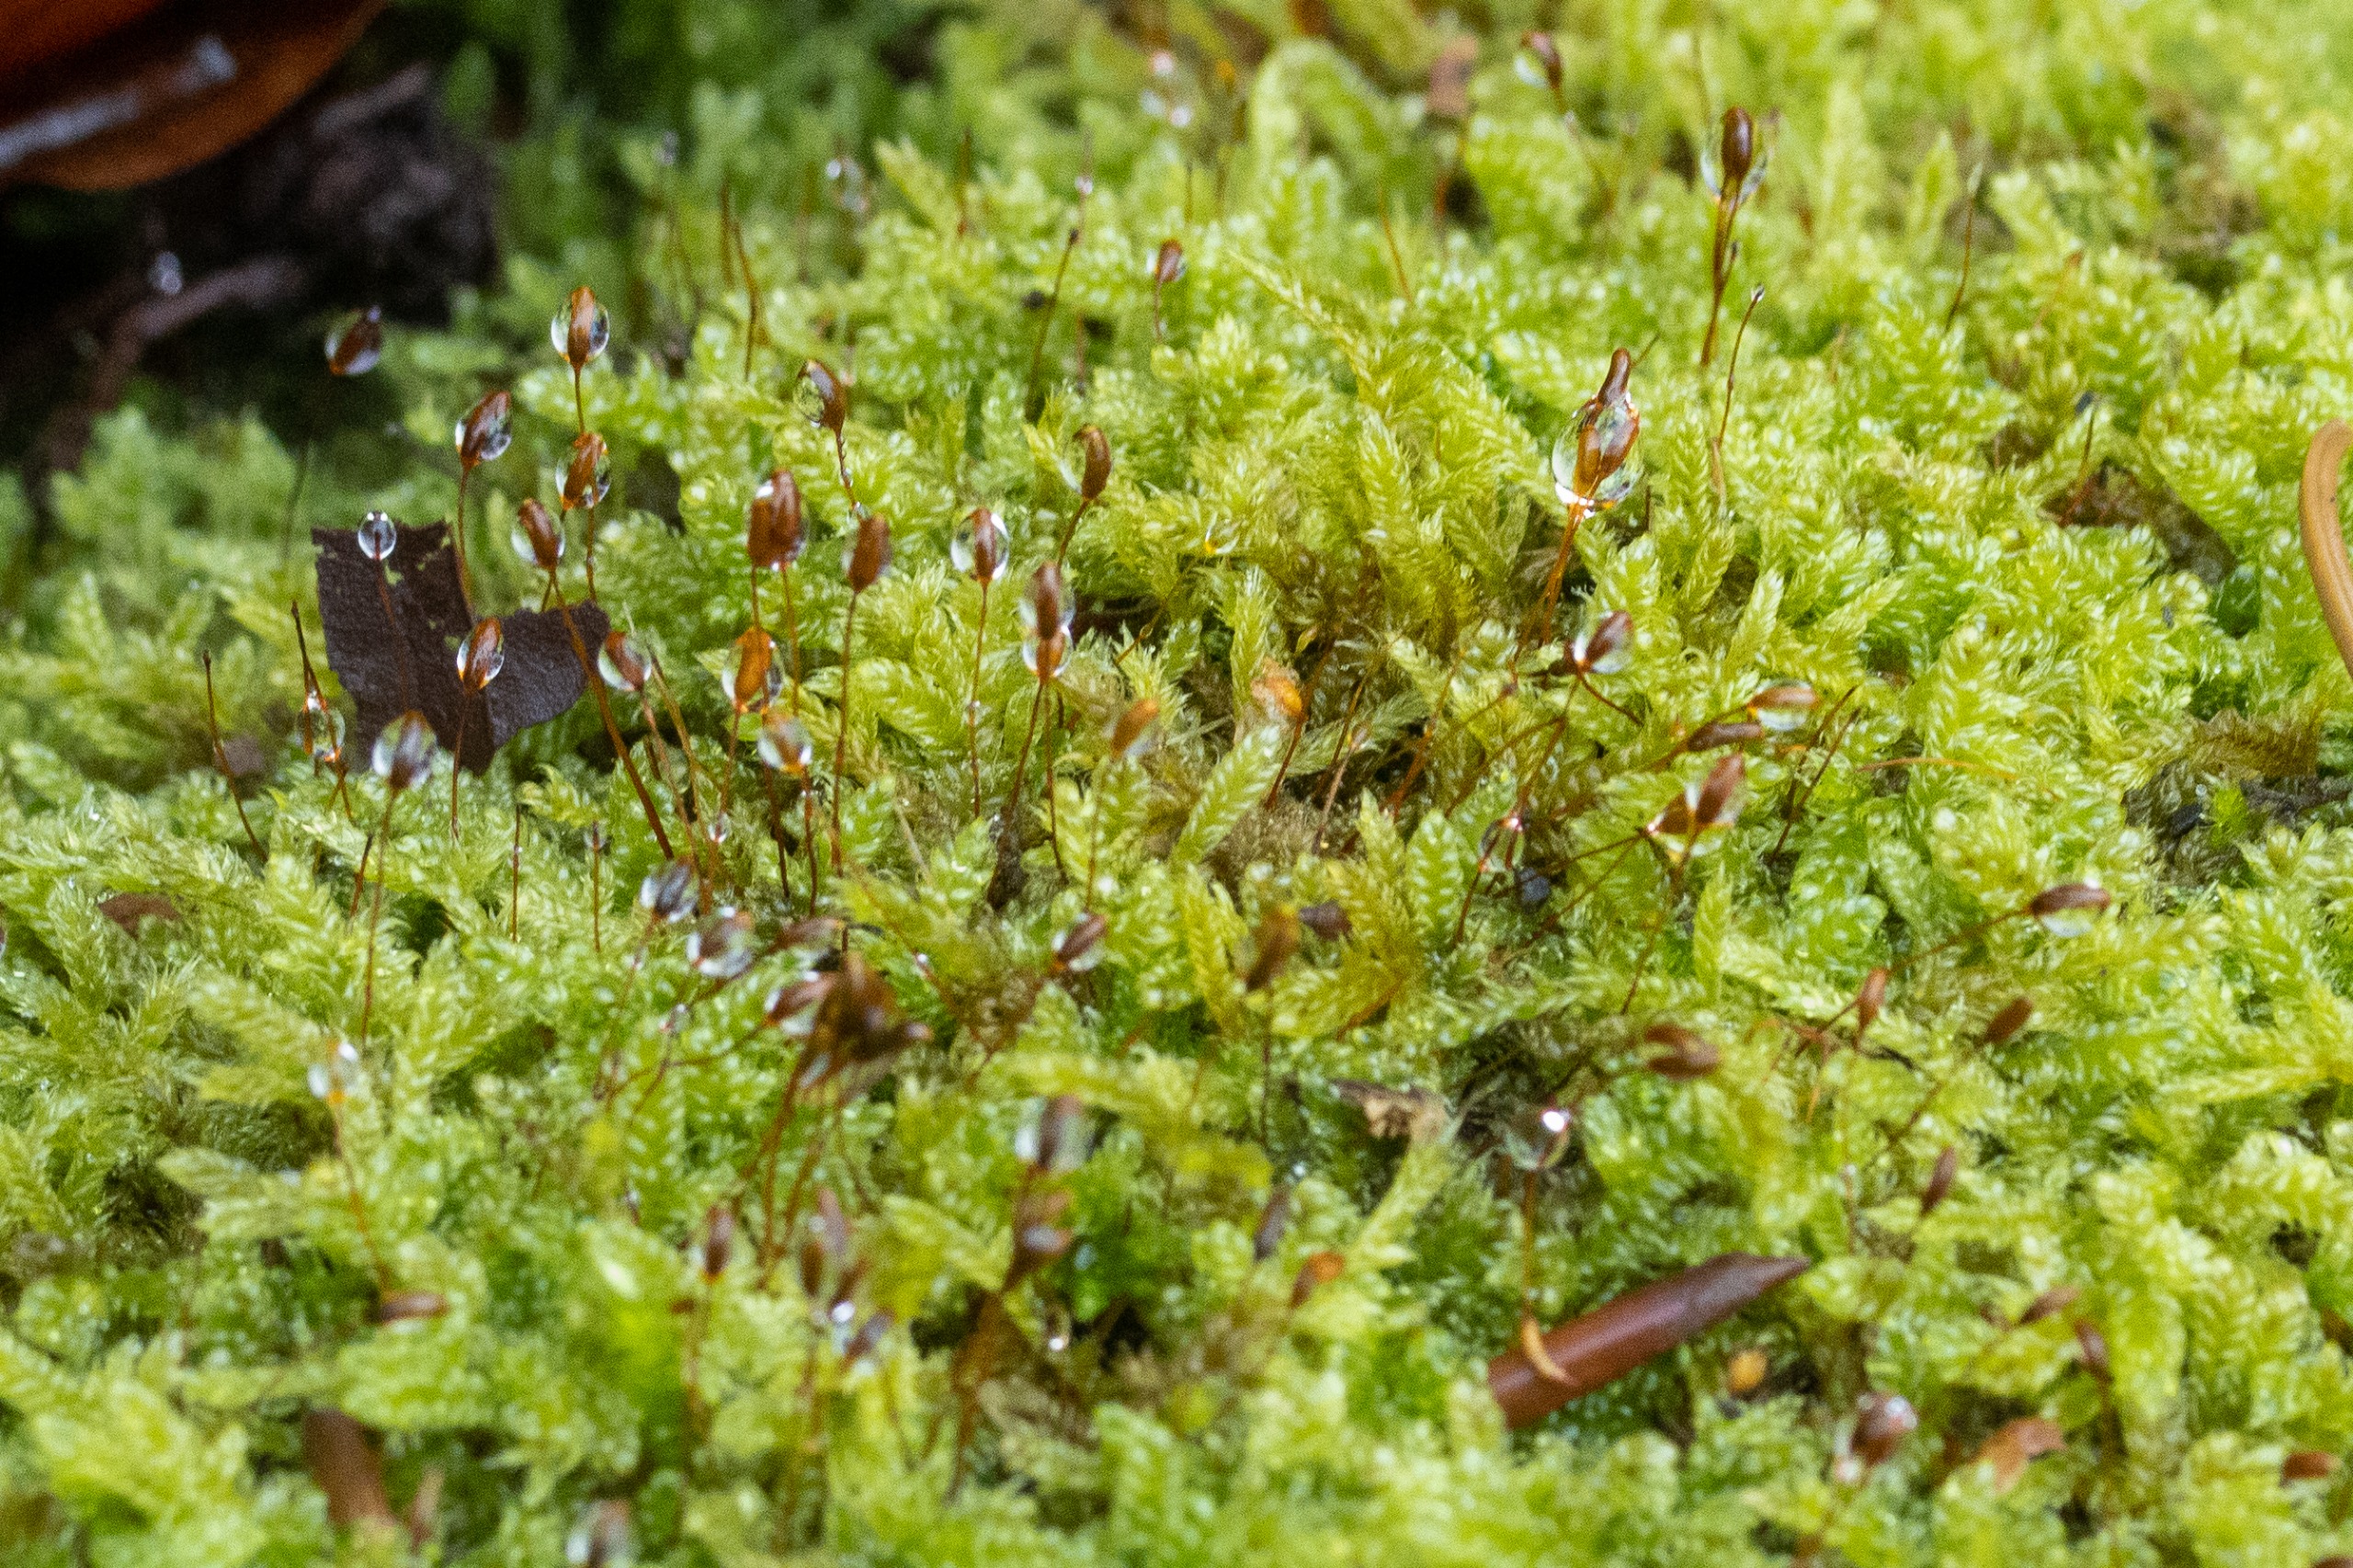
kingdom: Plantae
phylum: Bryophyta
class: Bryopsida
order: Hypnales
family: Hypnaceae
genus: Hypnum
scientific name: Hypnum cupressiforme
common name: Almindelig cypresmos
